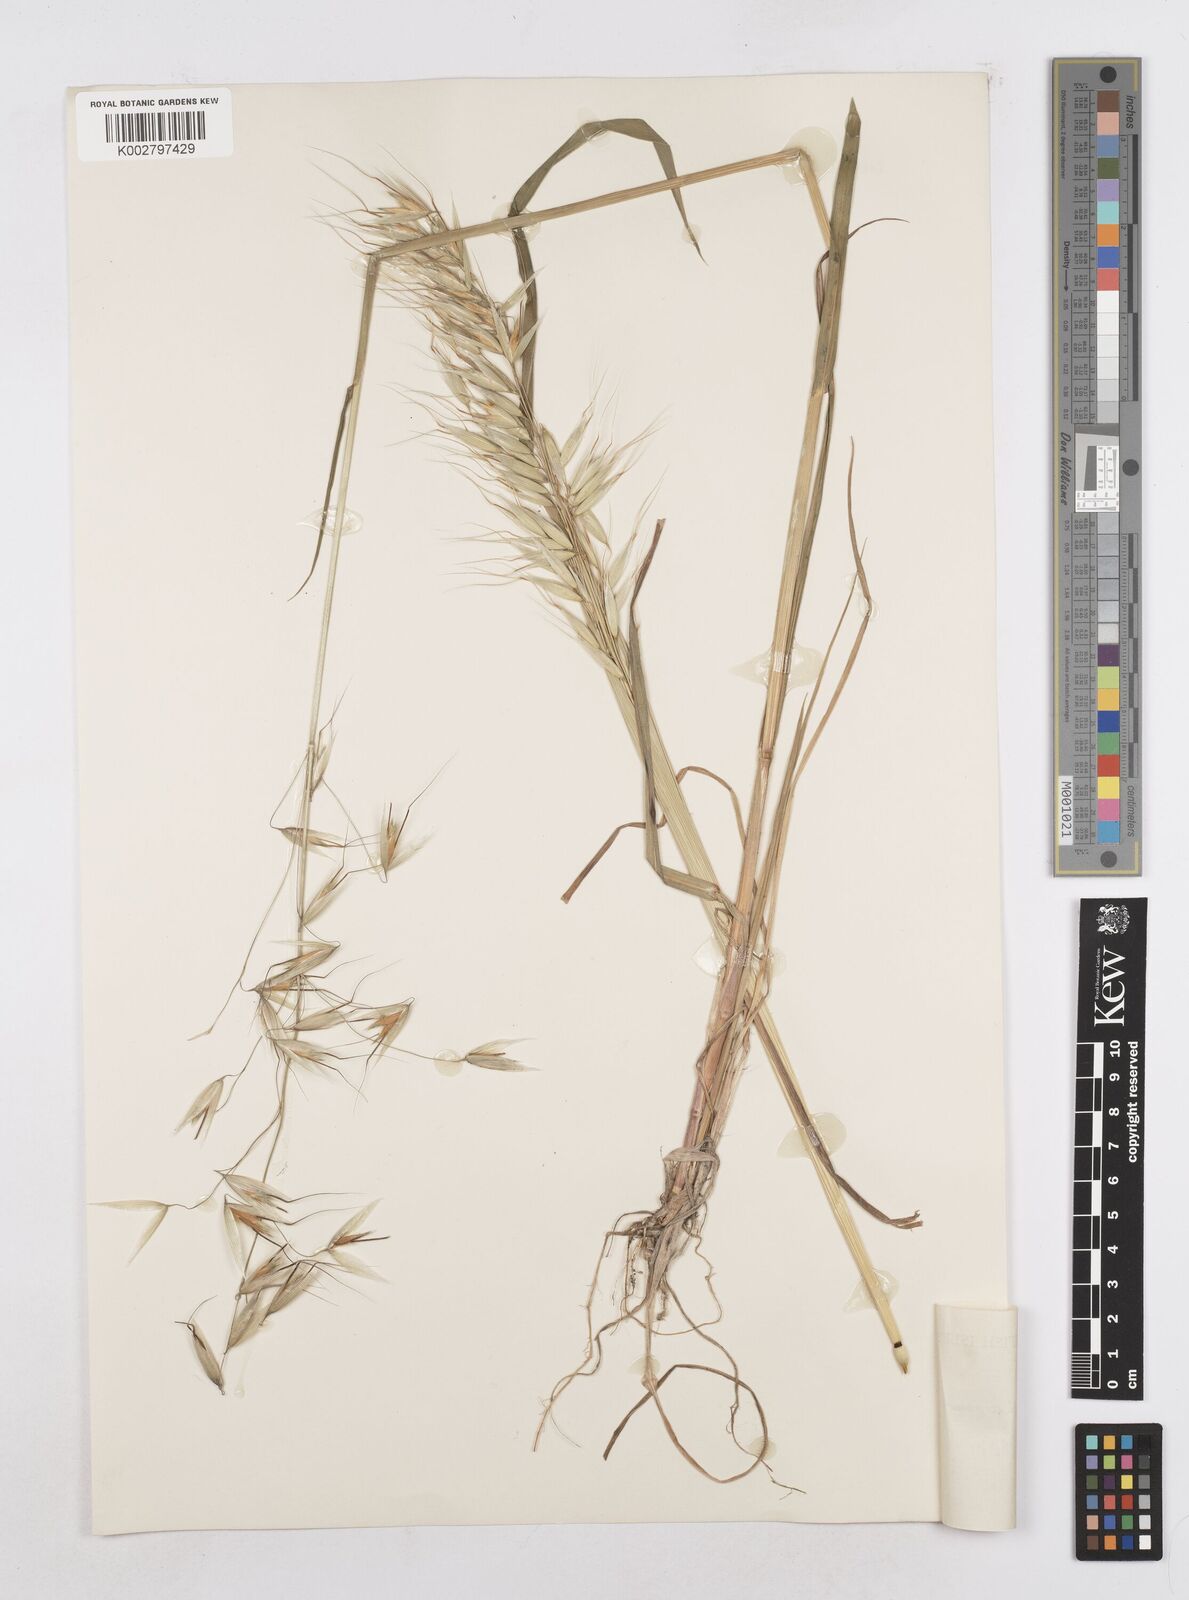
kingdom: Plantae
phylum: Tracheophyta
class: Liliopsida
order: Poales
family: Poaceae
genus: Avena
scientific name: Avena fatua
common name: Wild oat
